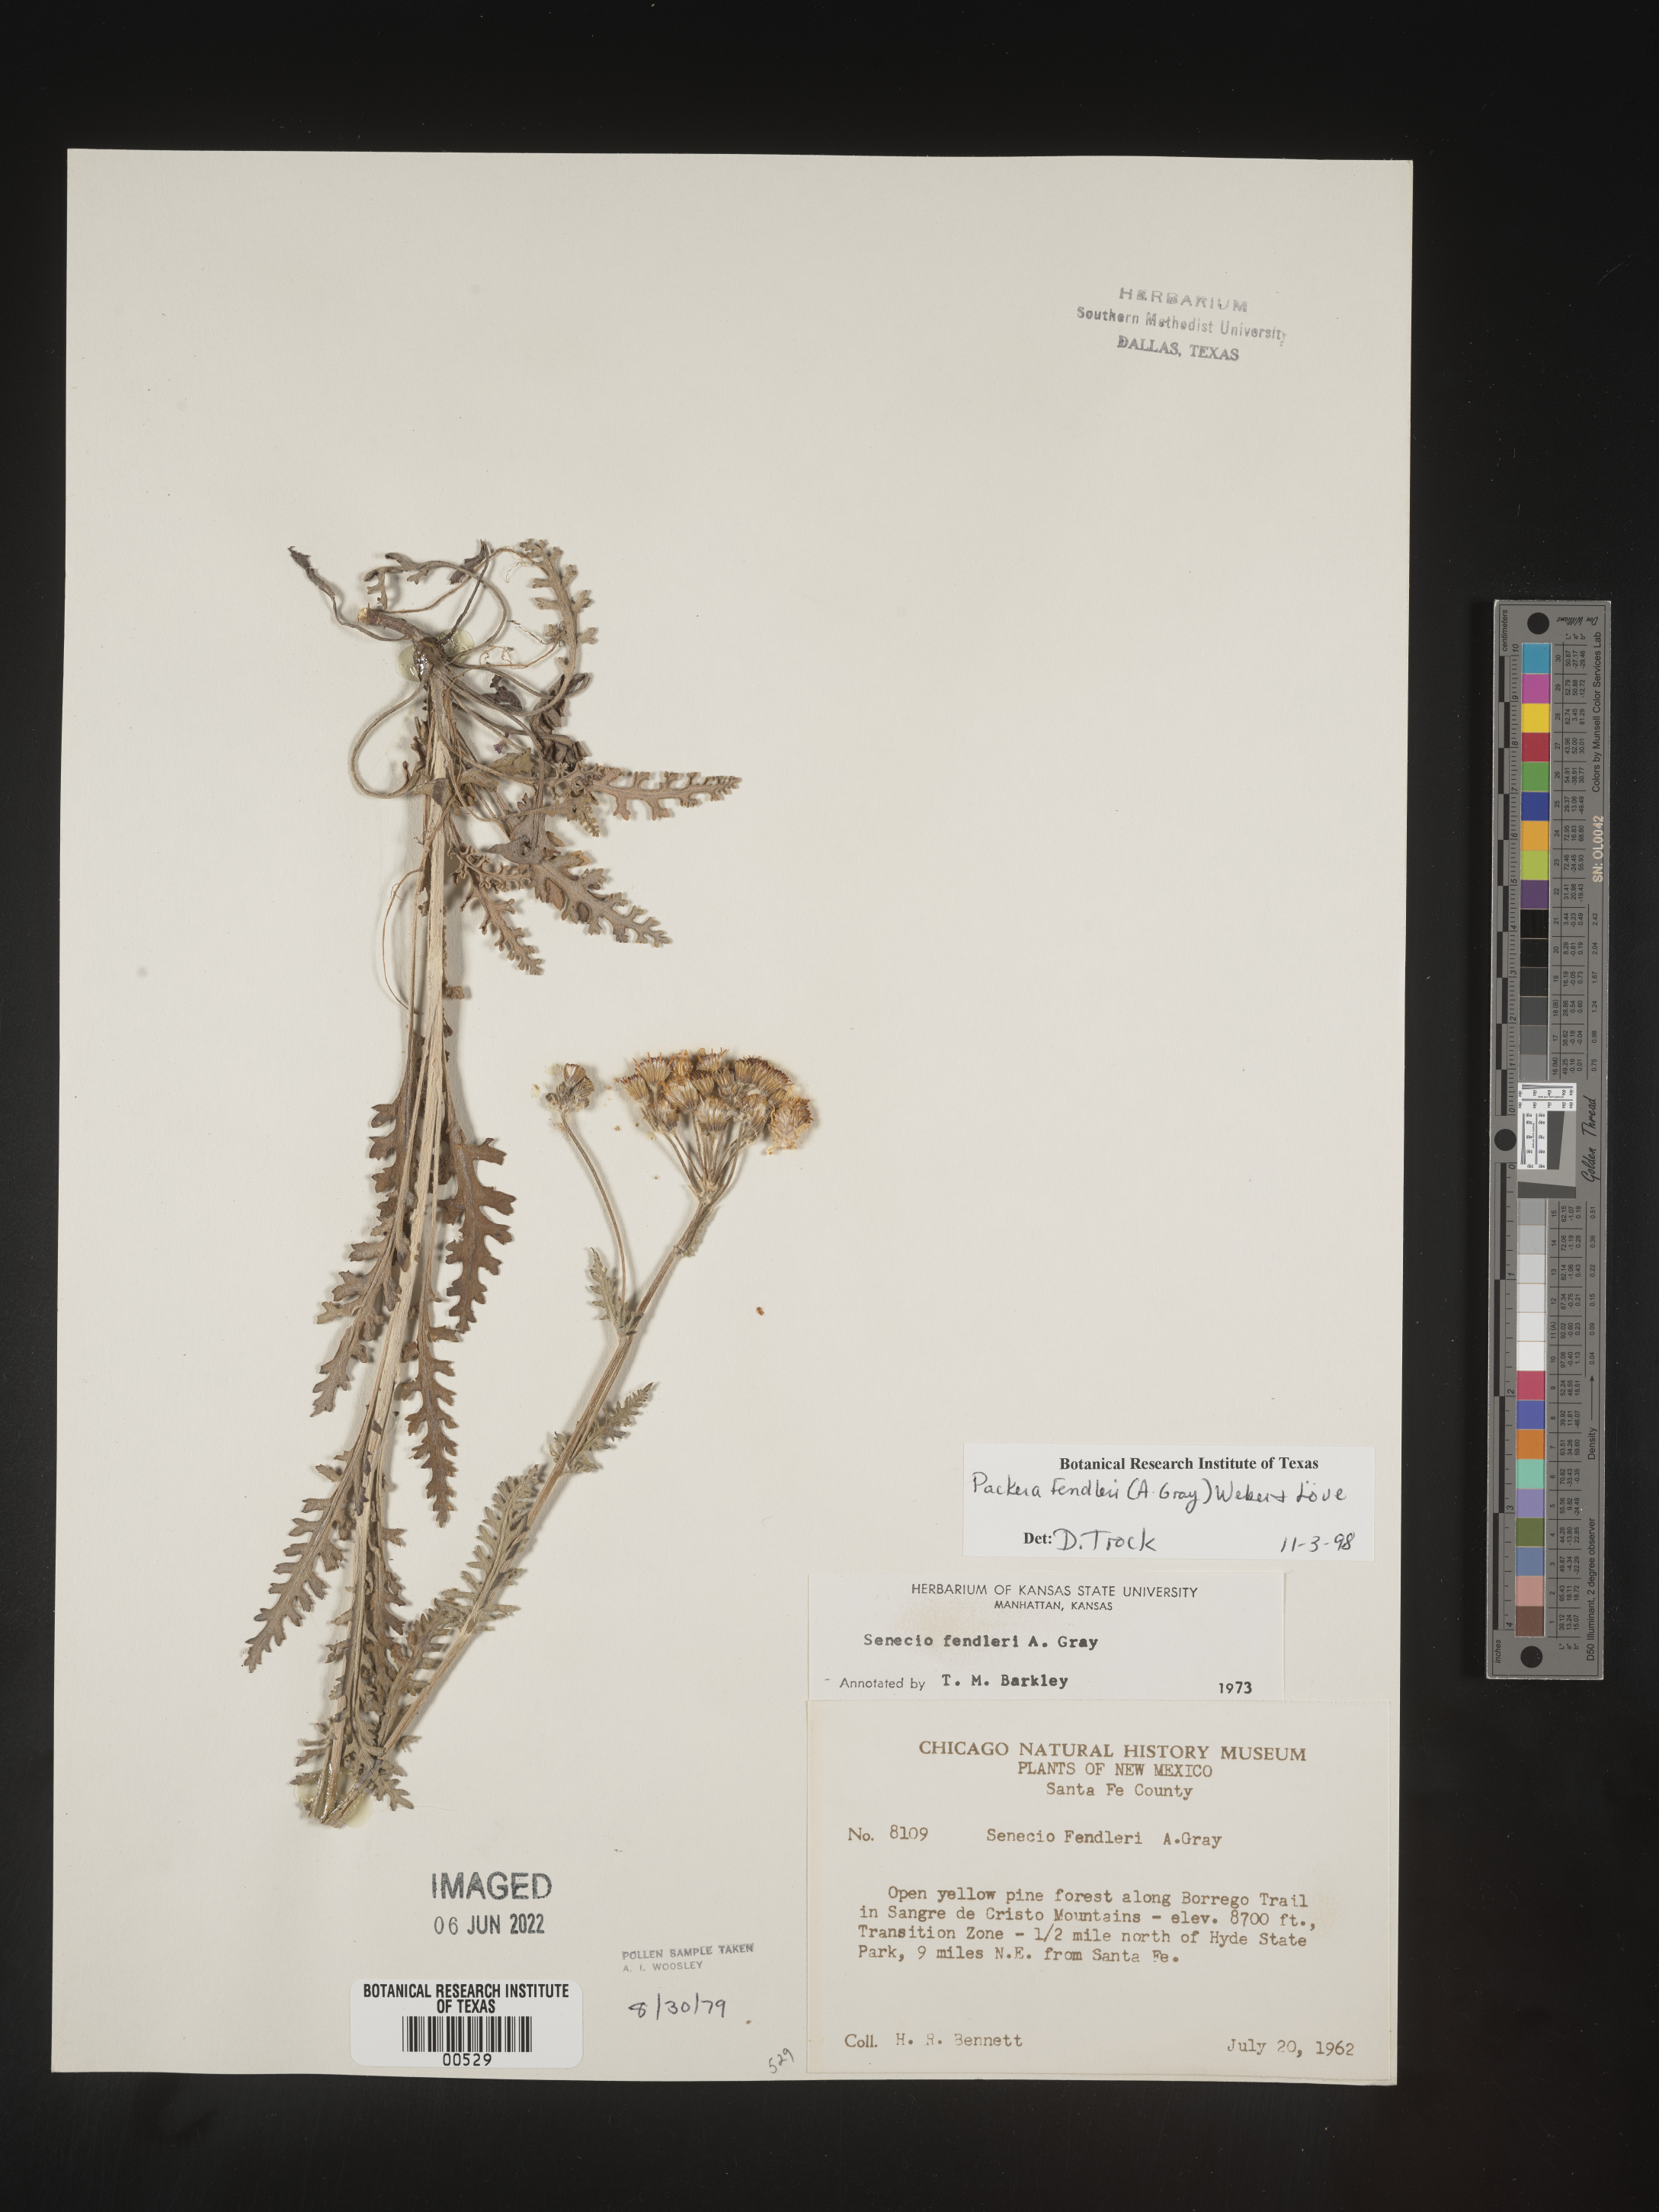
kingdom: Plantae
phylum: Tracheophyta
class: Magnoliopsida
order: Asterales
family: Asteraceae
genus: Packera
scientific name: Packera fendleri
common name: Notch-leaf butterweed
